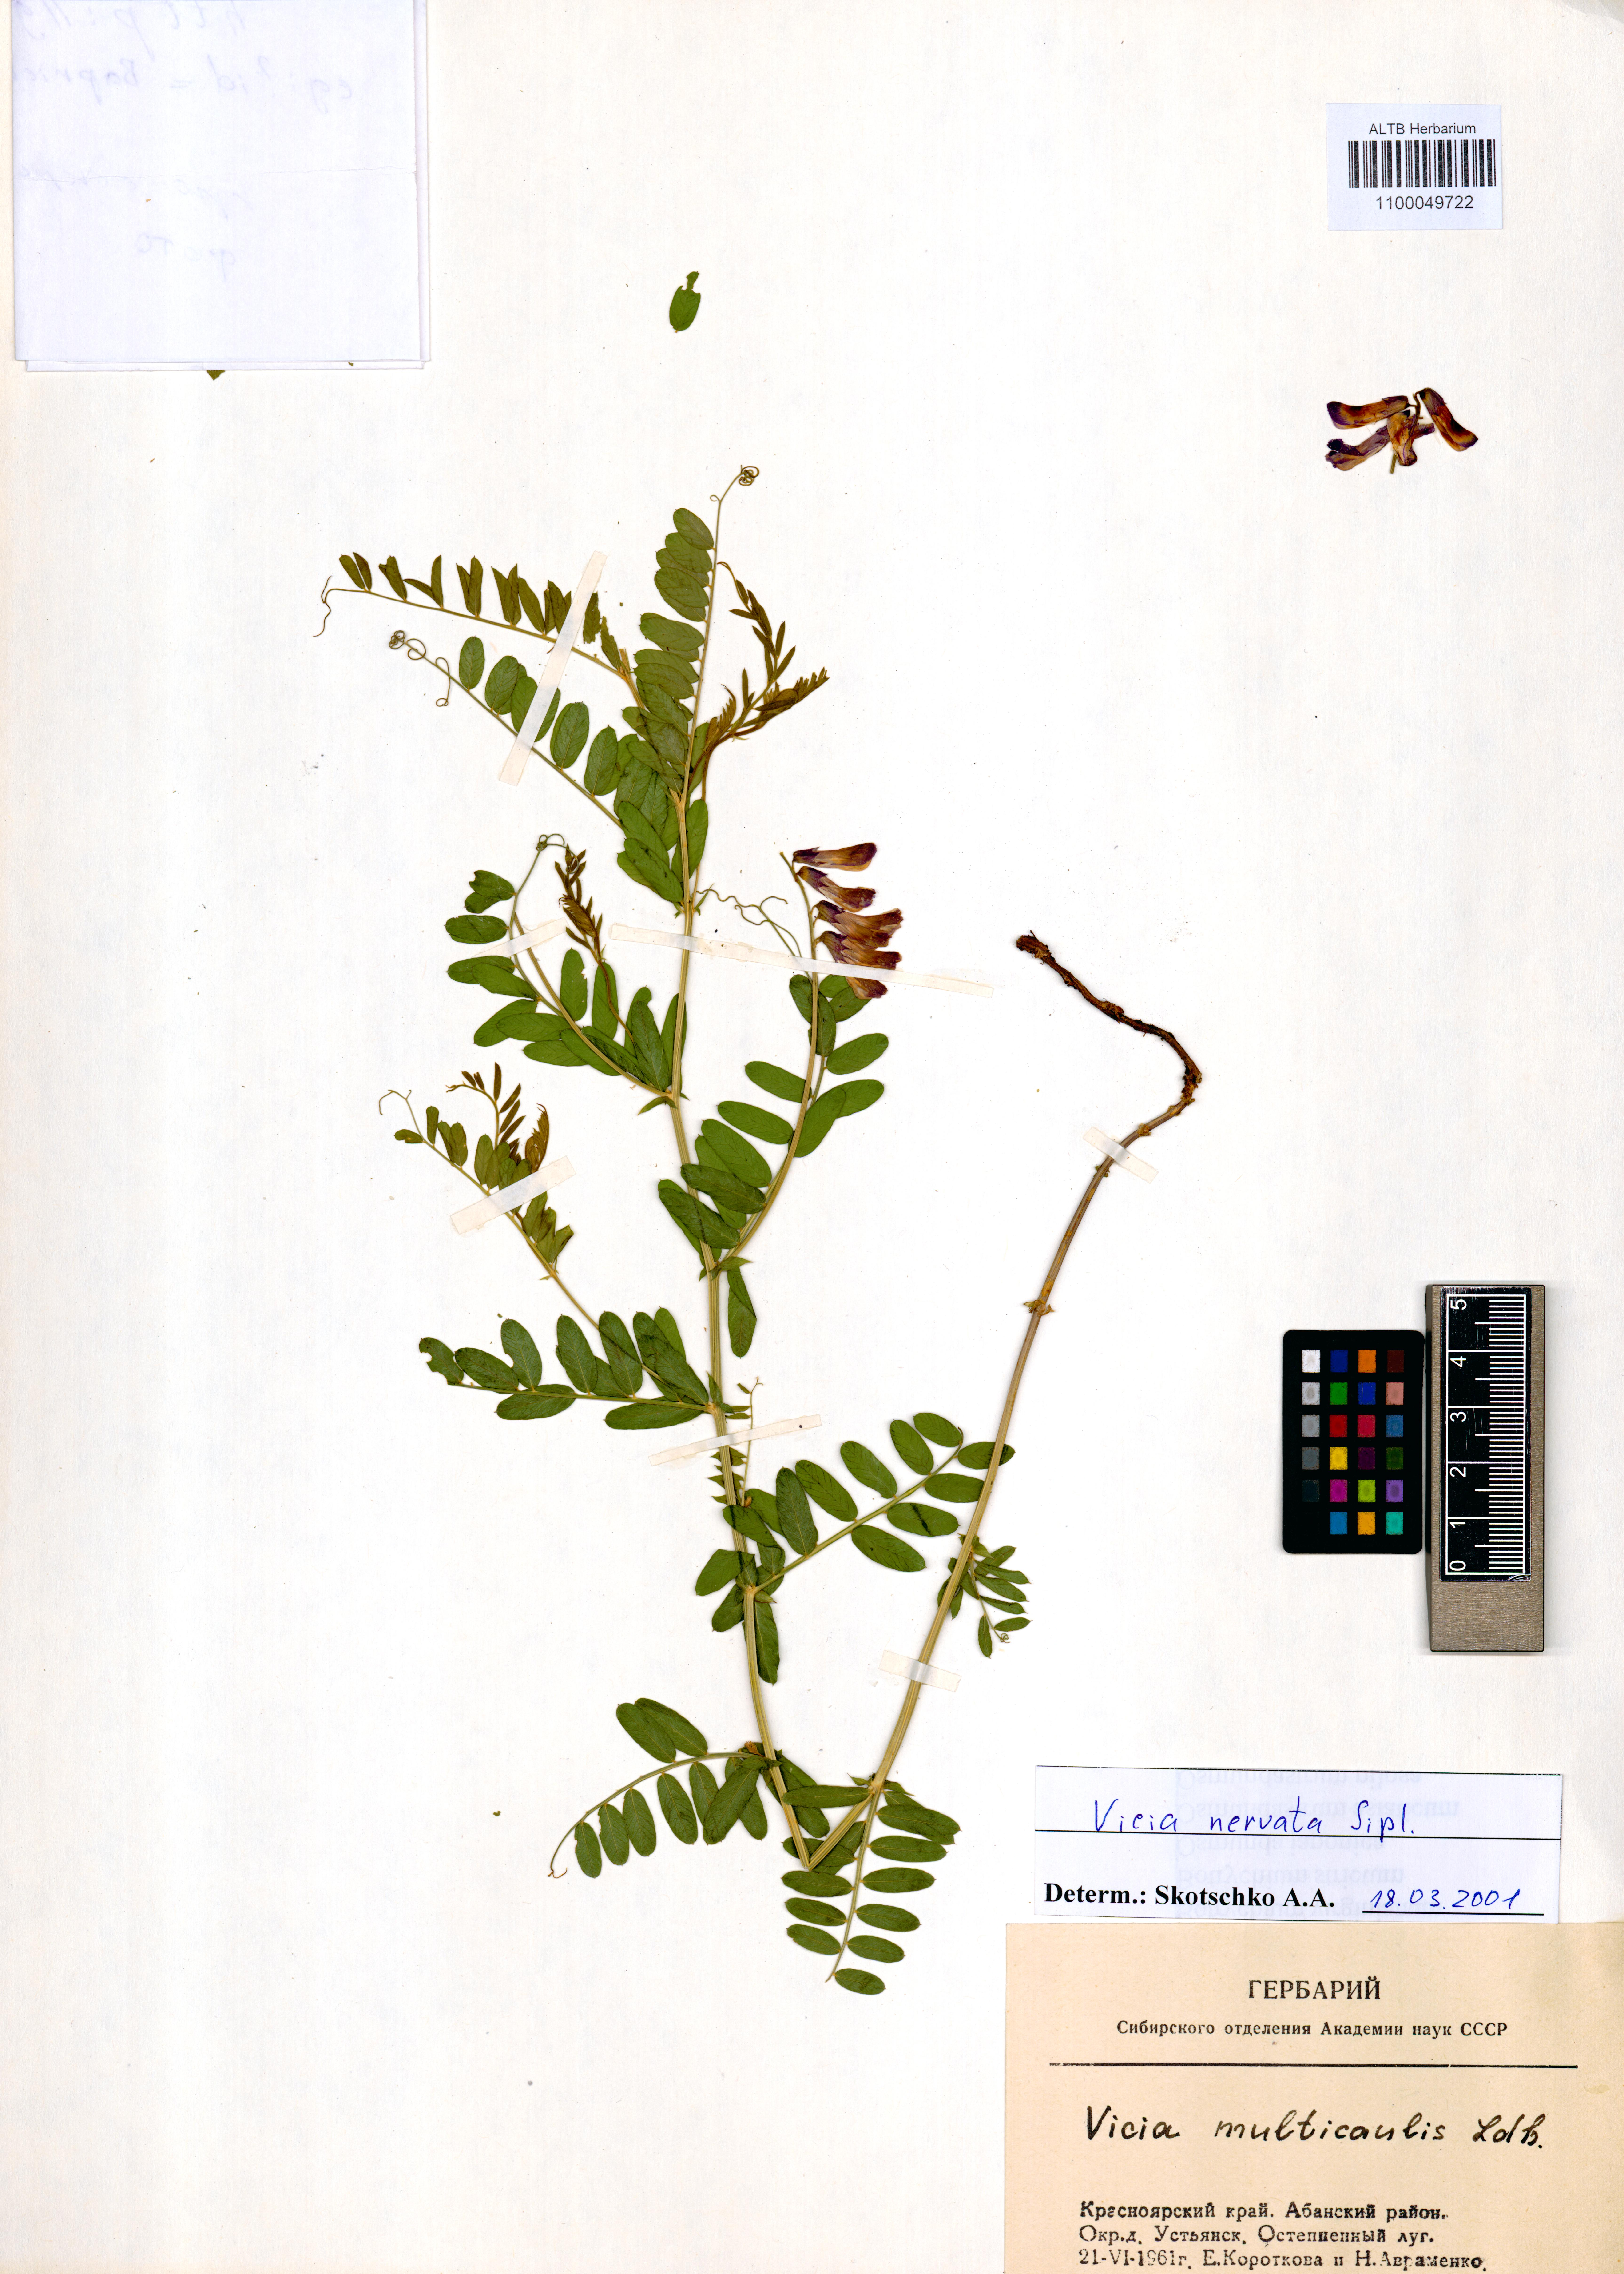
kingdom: Plantae
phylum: Tracheophyta
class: Magnoliopsida
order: Fabales
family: Fabaceae
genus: Vicia
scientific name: Vicia multicaulis
